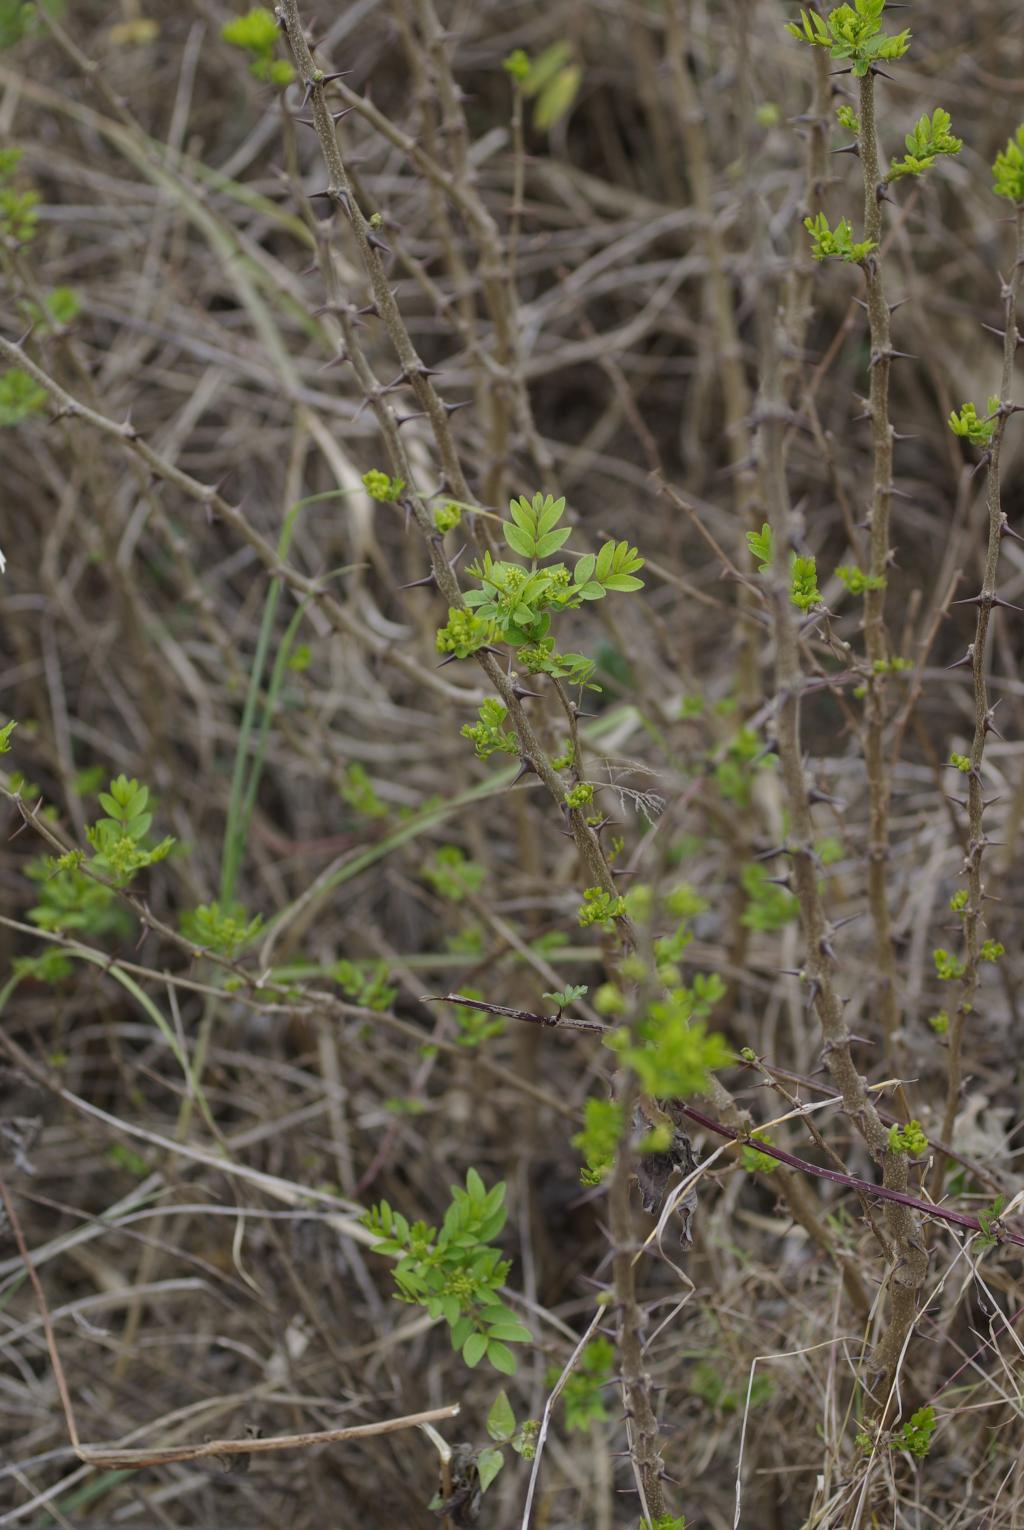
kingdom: Plantae
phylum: Tracheophyta
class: Magnoliopsida
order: Sapindales
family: Rutaceae
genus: Zanthoxylum
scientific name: Zanthoxylum simulans
